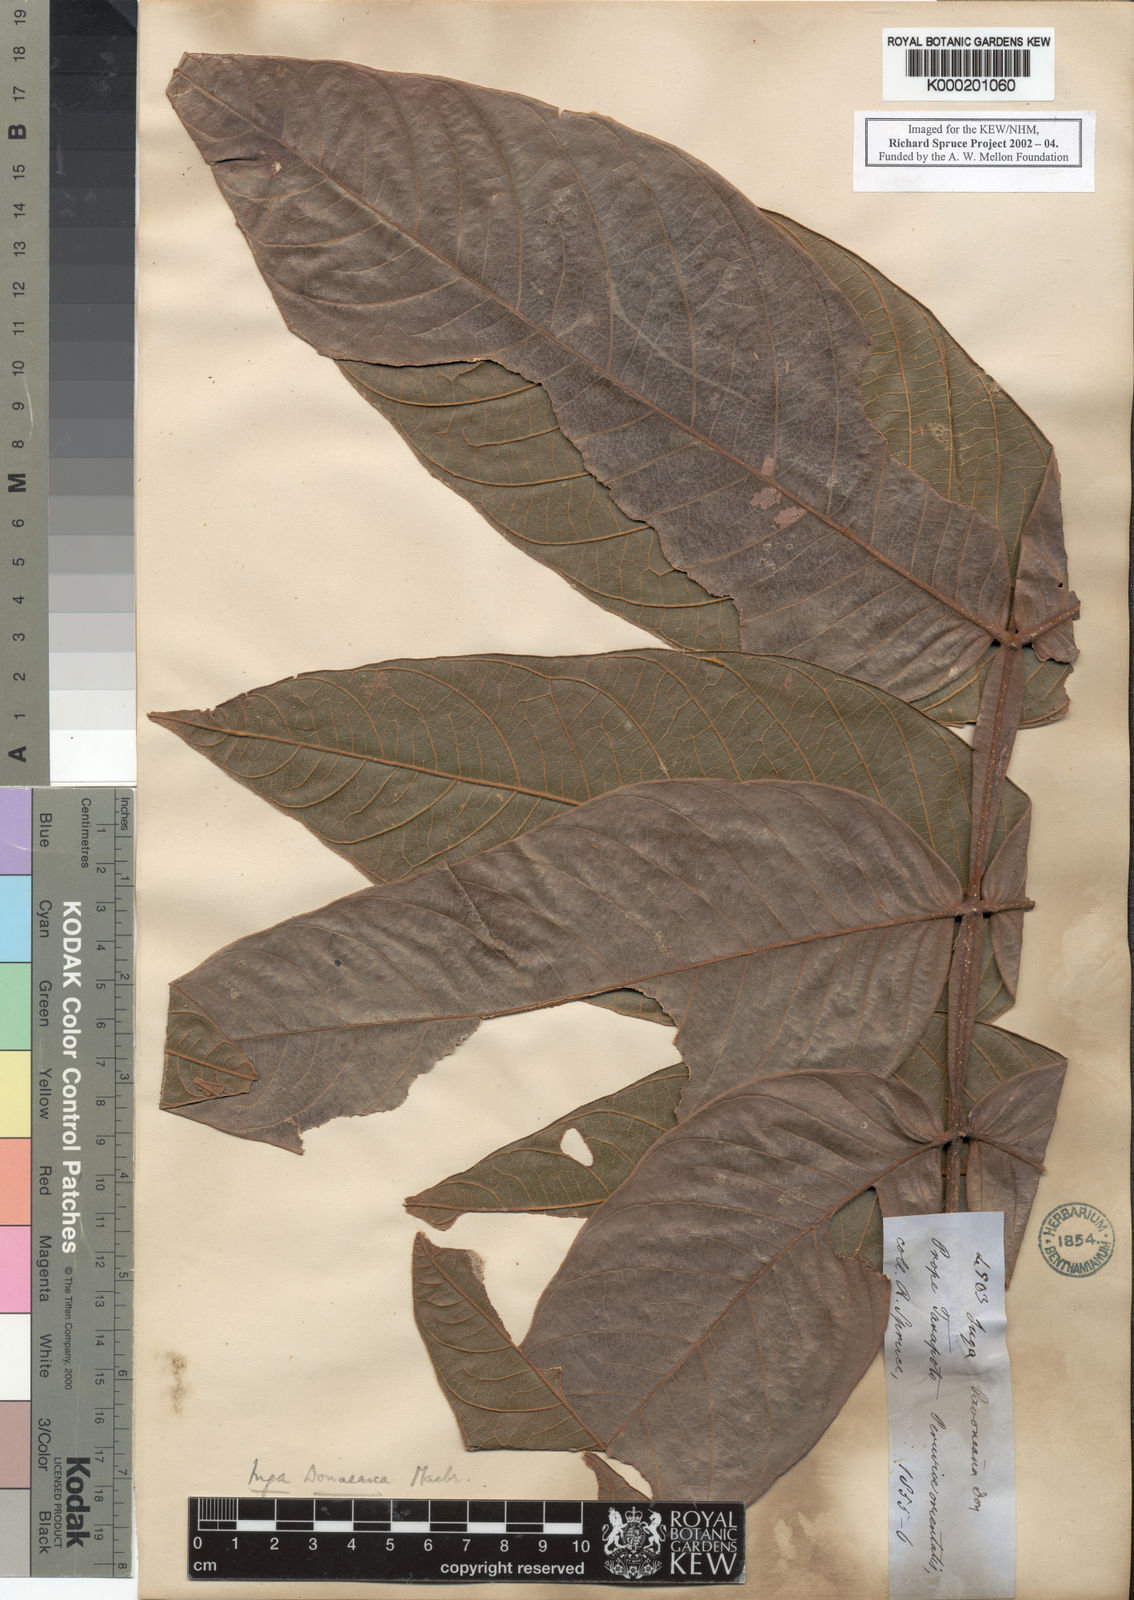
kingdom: Plantae
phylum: Tracheophyta
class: Magnoliopsida
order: Fabales
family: Fabaceae
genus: Inga
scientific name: Inga sapindoides
